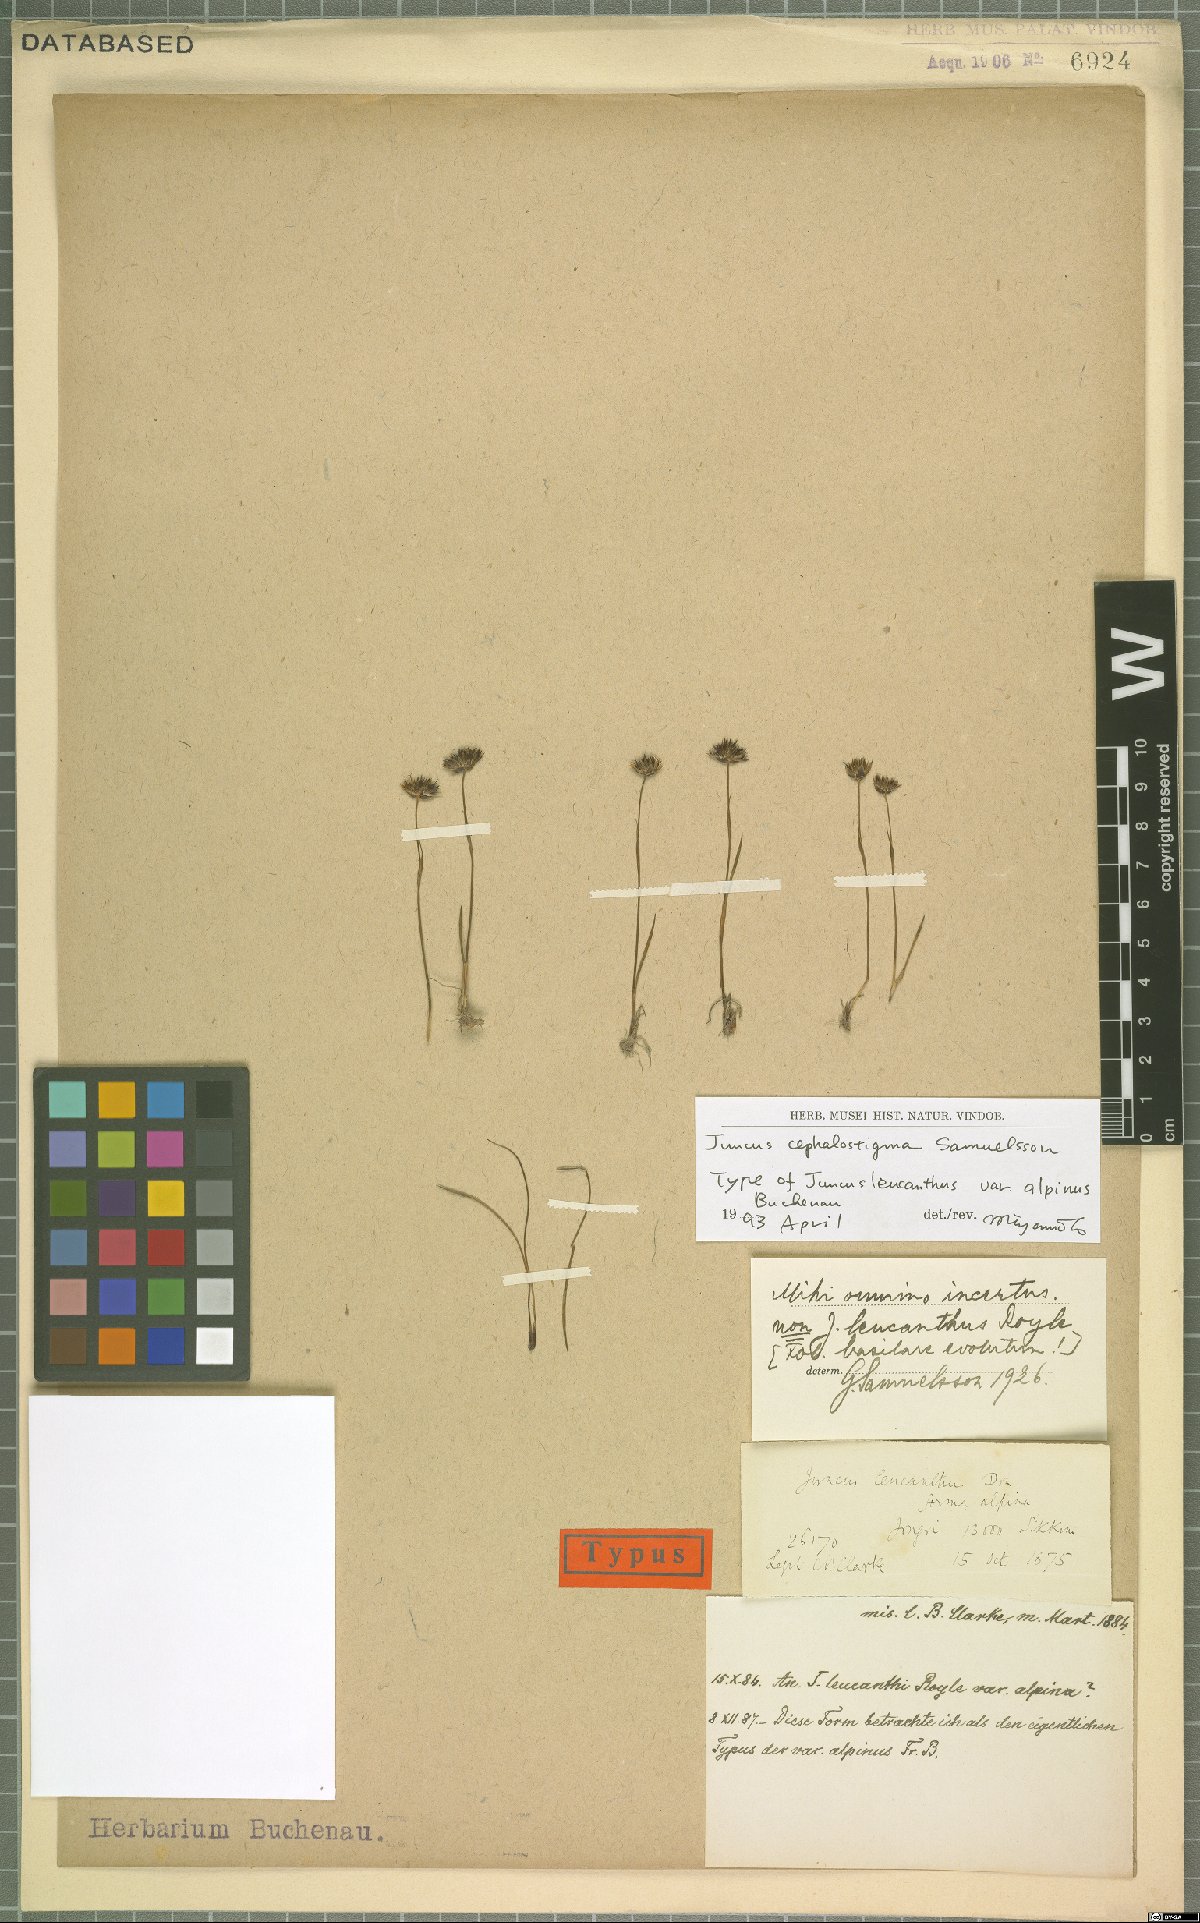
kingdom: Plantae
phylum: Tracheophyta
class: Liliopsida
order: Poales
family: Juncaceae
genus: Juncus
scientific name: Juncus cephalostigma
